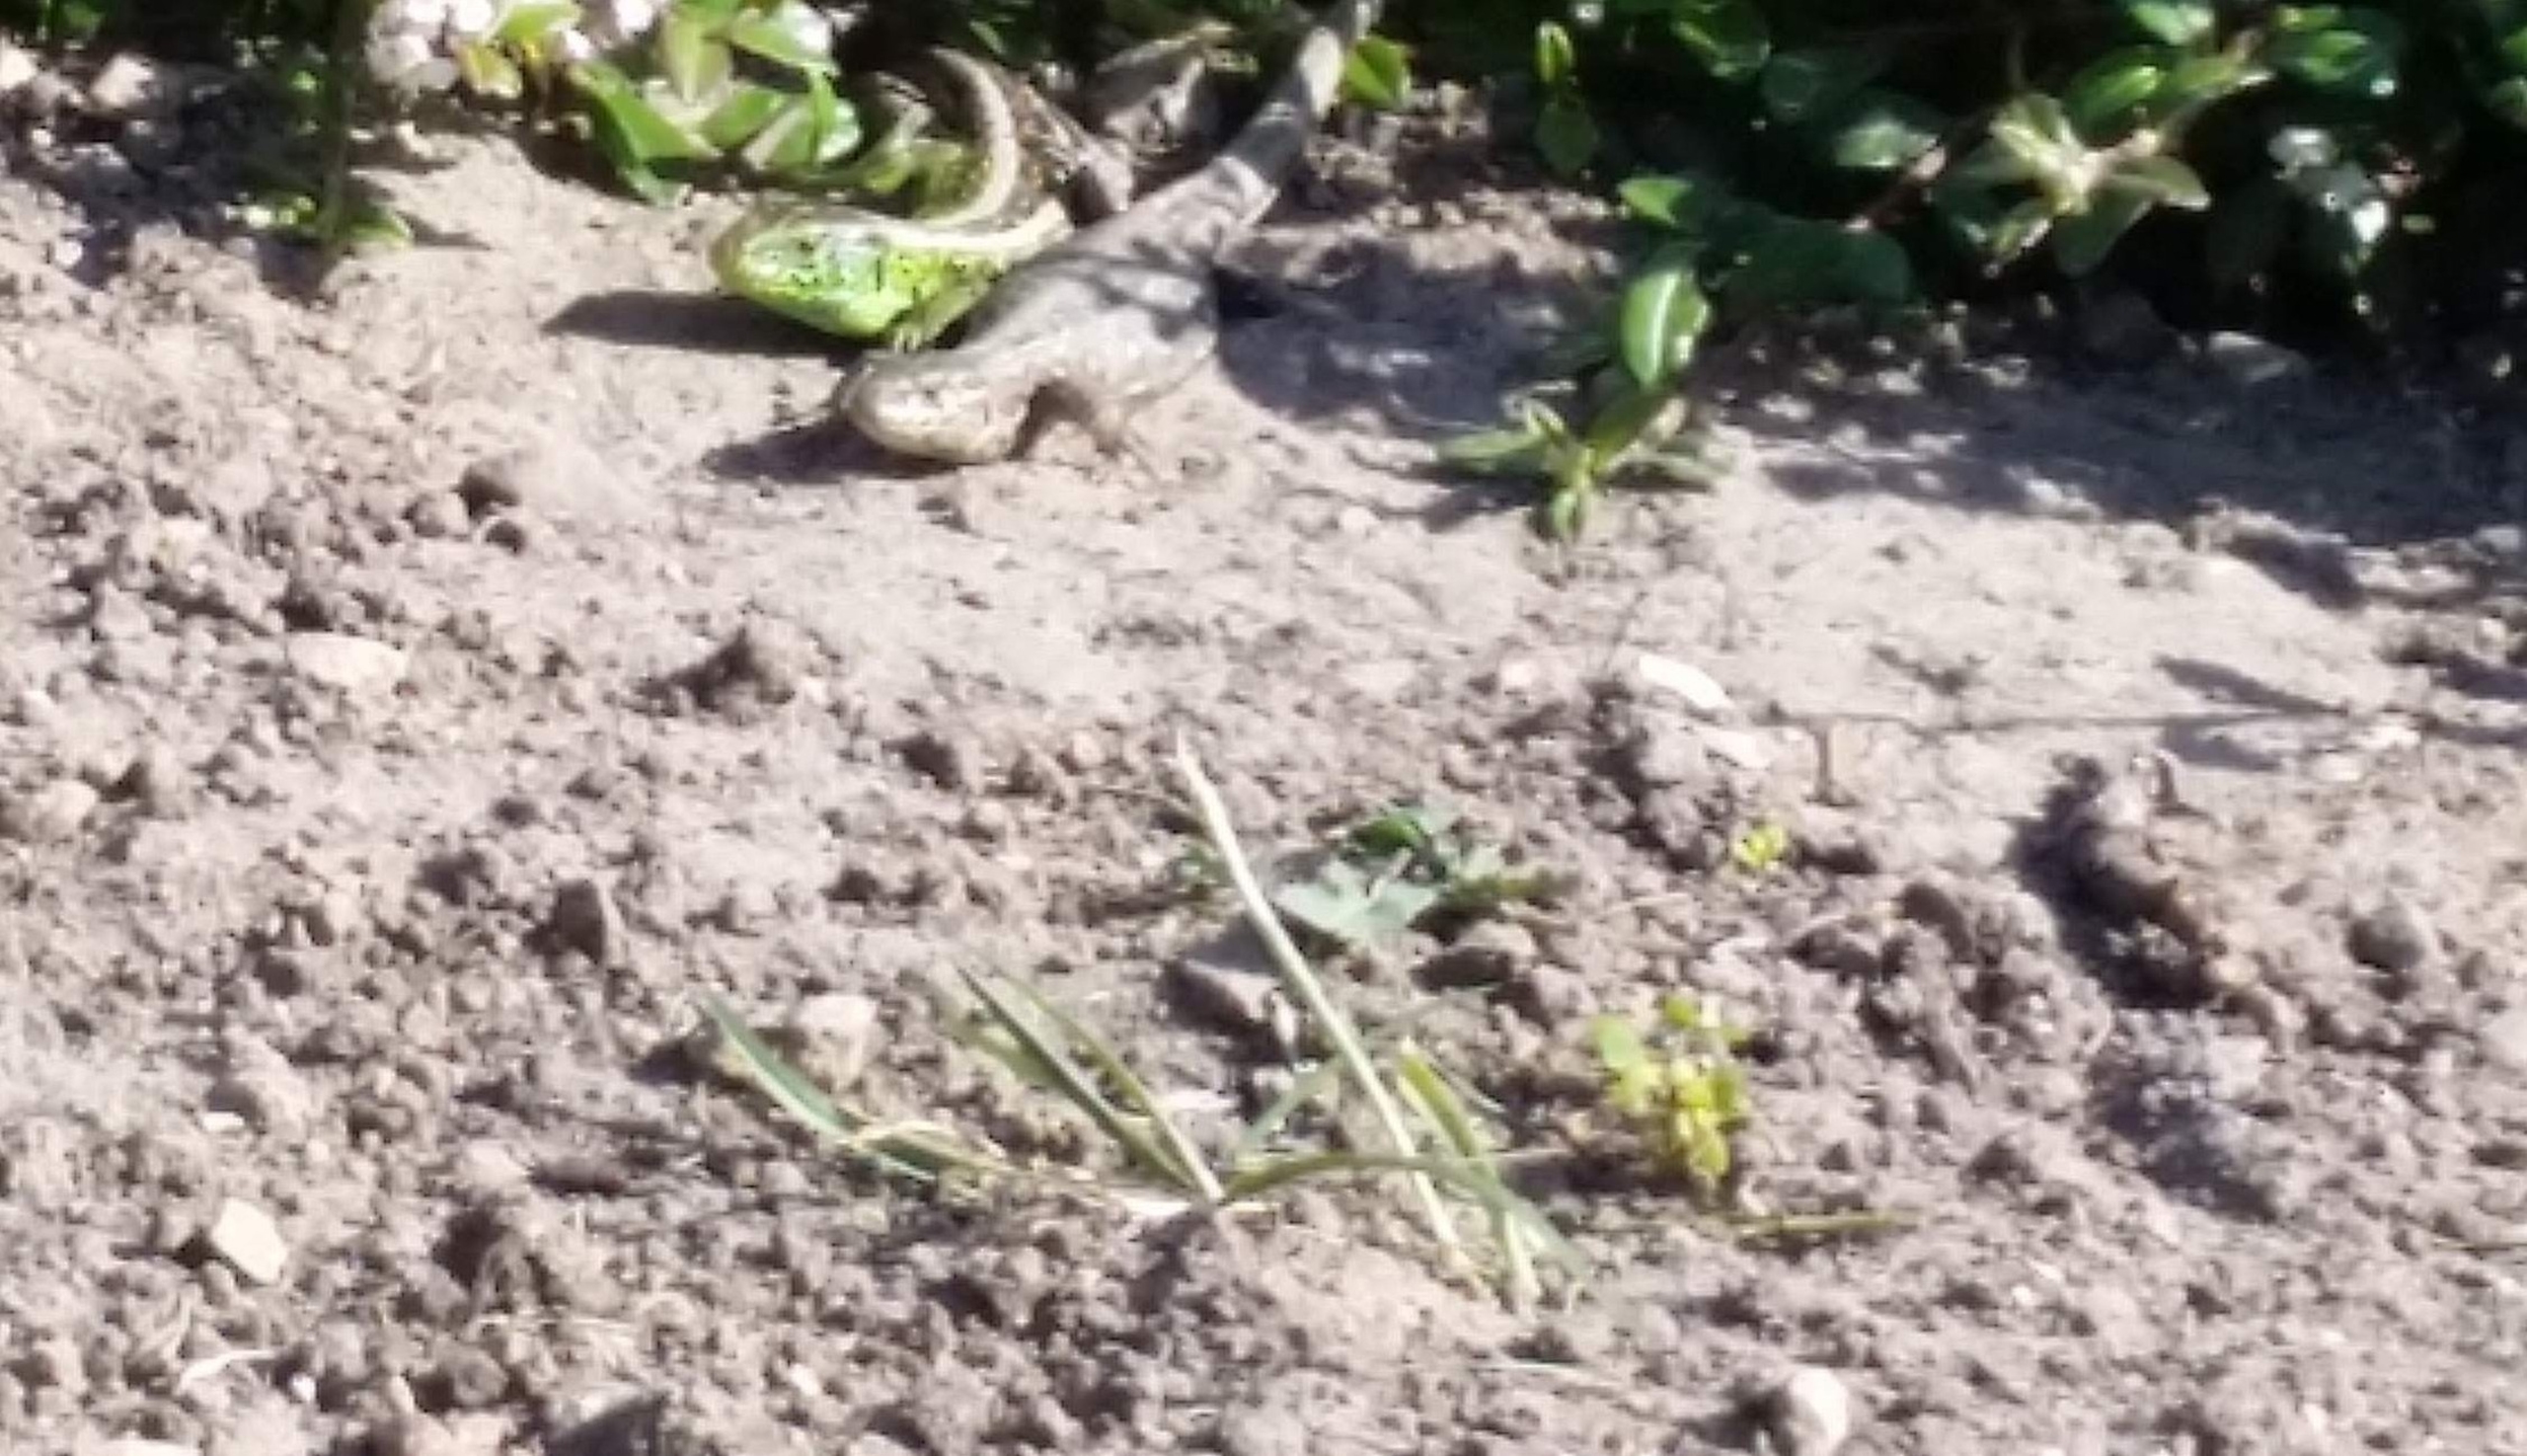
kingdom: Animalia
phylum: Chordata
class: Squamata
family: Lacertidae
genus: Lacerta
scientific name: Lacerta agilis
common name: Markfirben
